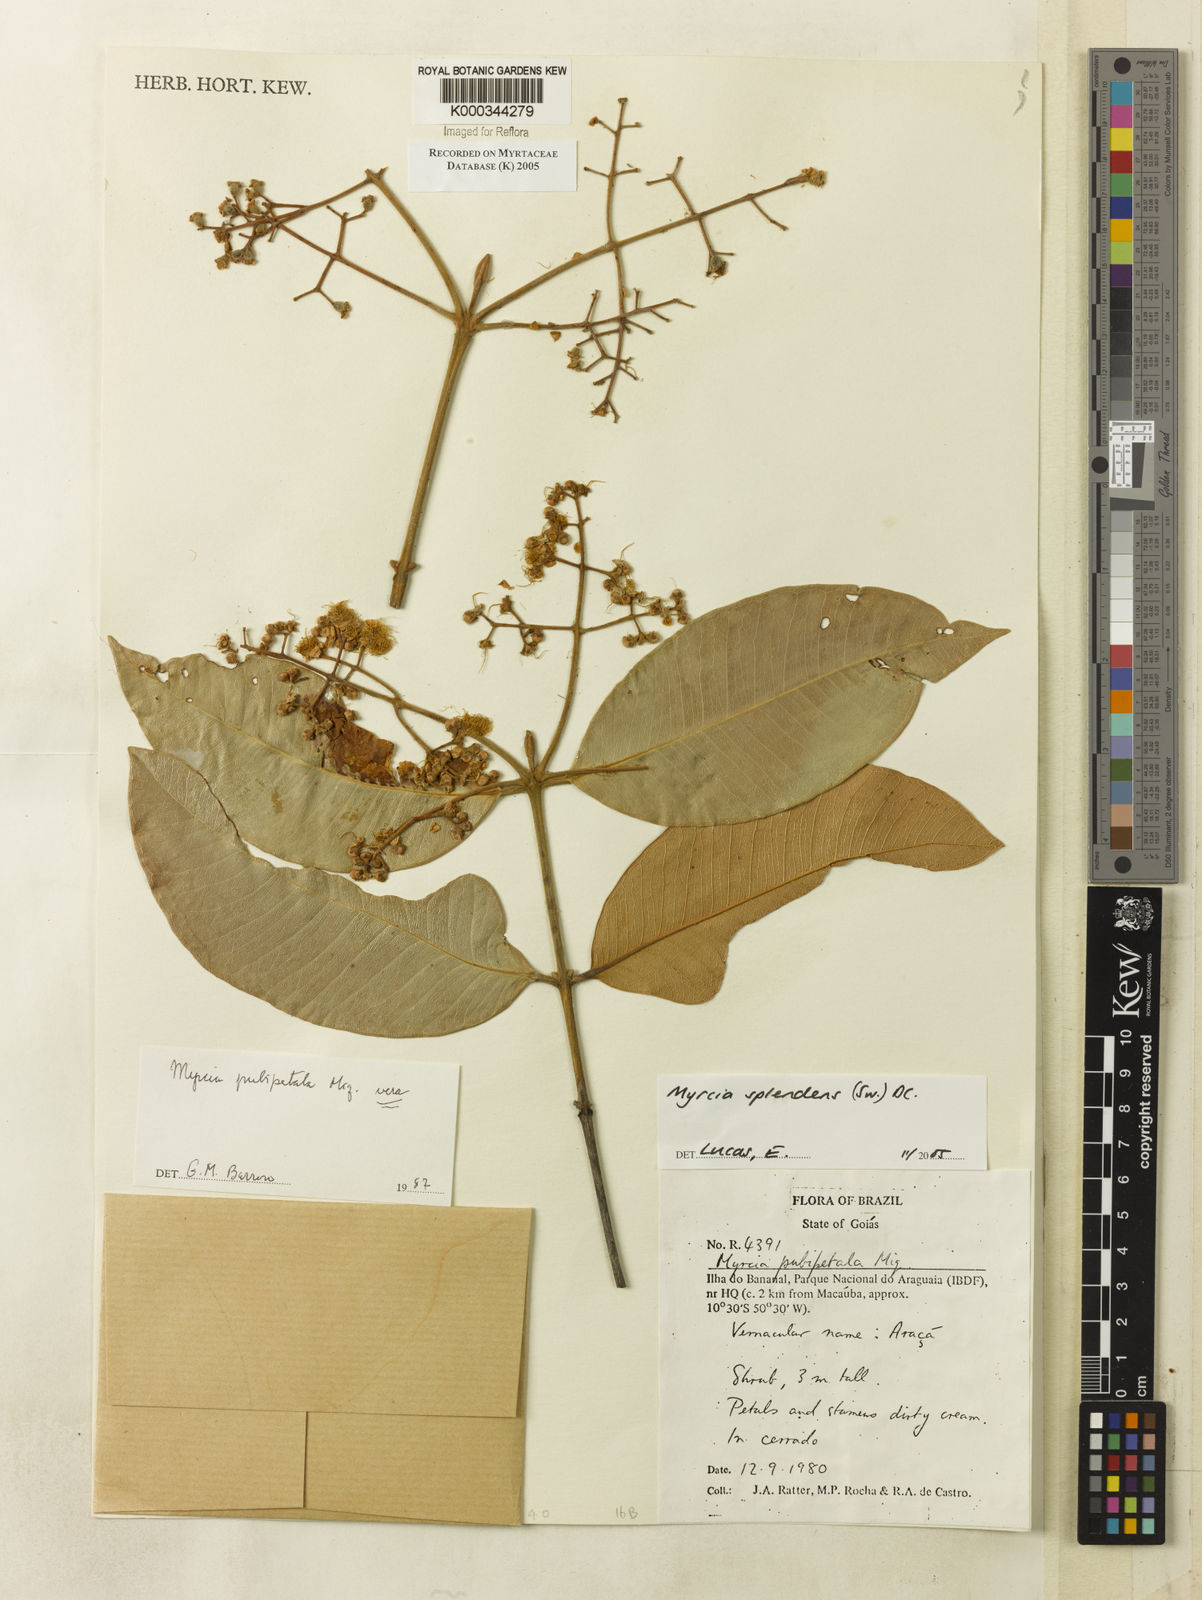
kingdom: Plantae
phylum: Tracheophyta
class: Magnoliopsida
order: Myrtales
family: Myrtaceae
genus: Myrcia
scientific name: Myrcia splendens
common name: Surinam cherry
